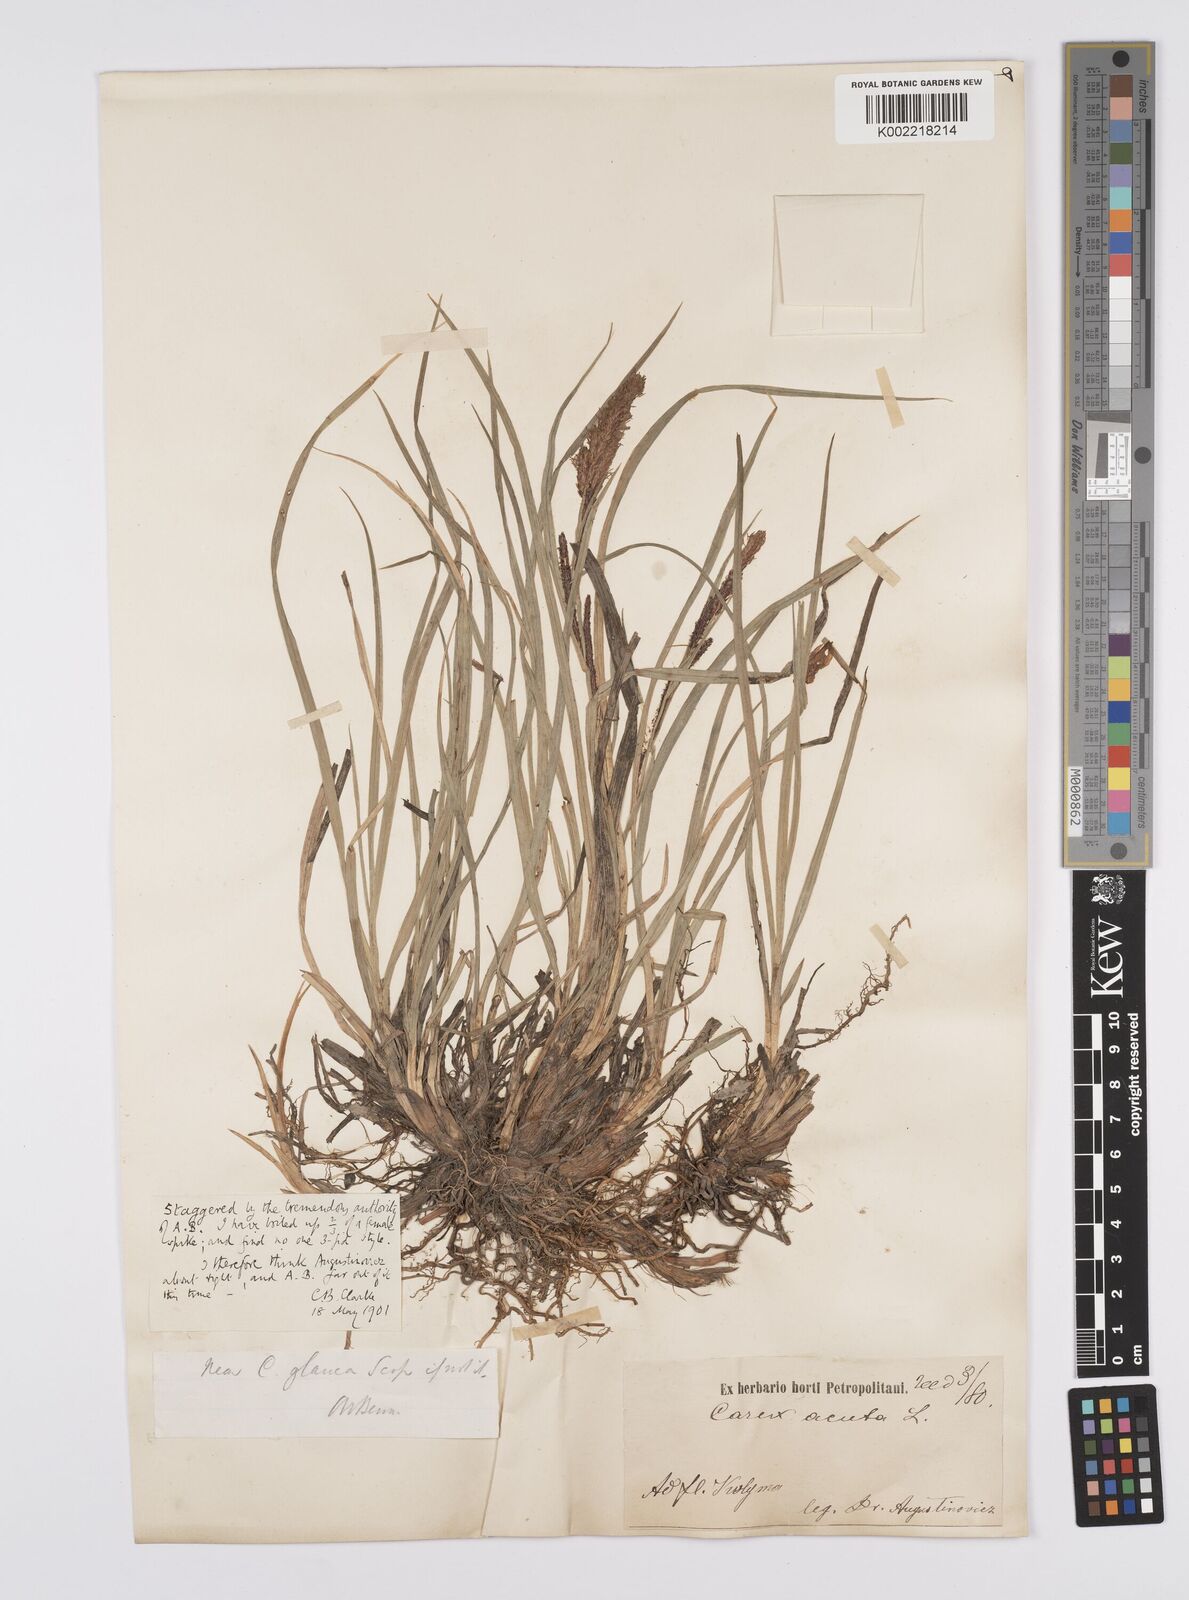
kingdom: Plantae
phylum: Tracheophyta
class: Liliopsida
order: Poales
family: Cyperaceae
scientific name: Cyperaceae
